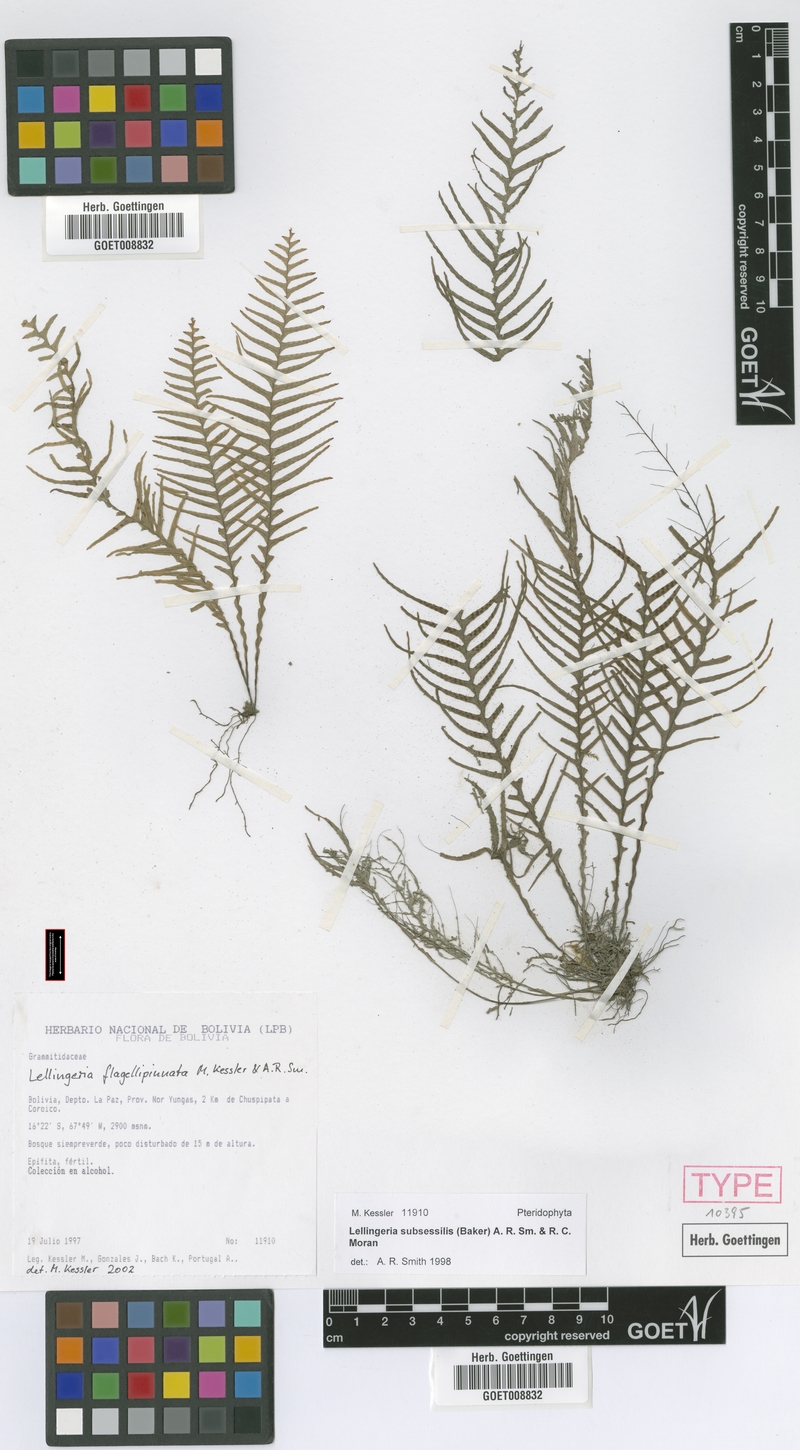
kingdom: Plantae
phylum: Tracheophyta
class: Polypodiopsida
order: Polypodiales
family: Polypodiaceae
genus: Lellingeria
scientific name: Lellingeria flagellipinnata
